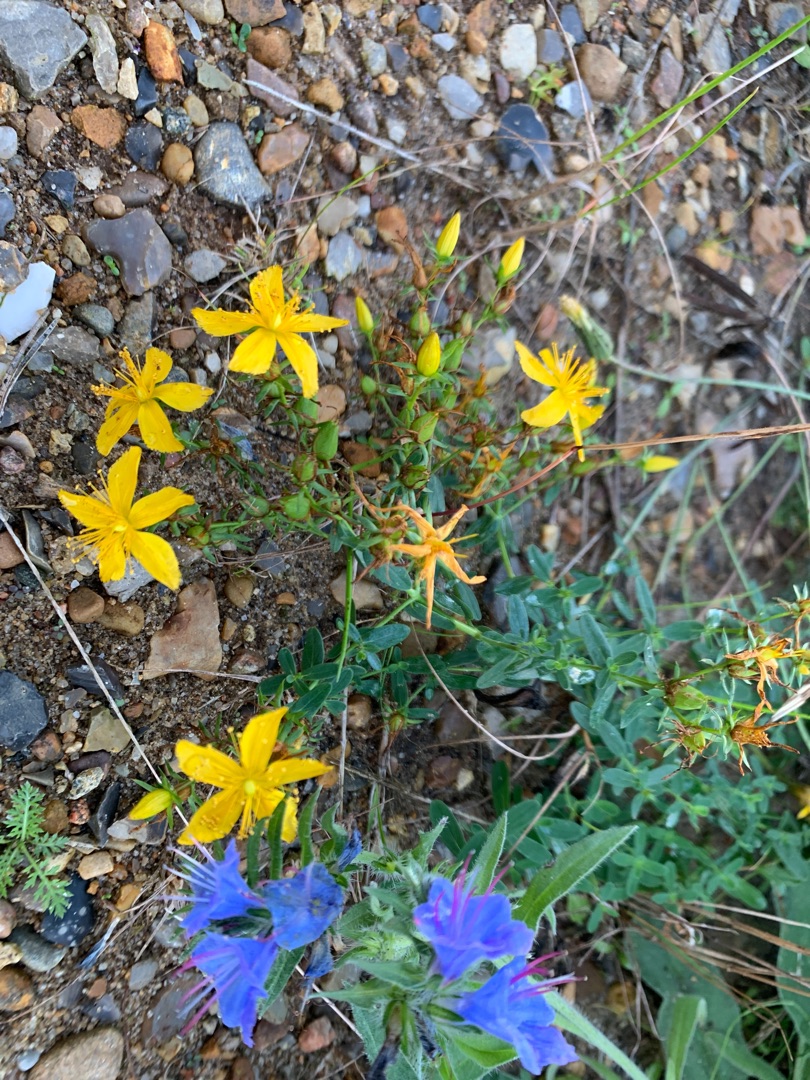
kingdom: Plantae
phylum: Tracheophyta
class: Magnoliopsida
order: Malpighiales
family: Hypericaceae
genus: Hypericum
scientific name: Hypericum perforatum
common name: Prikbladet perikon
